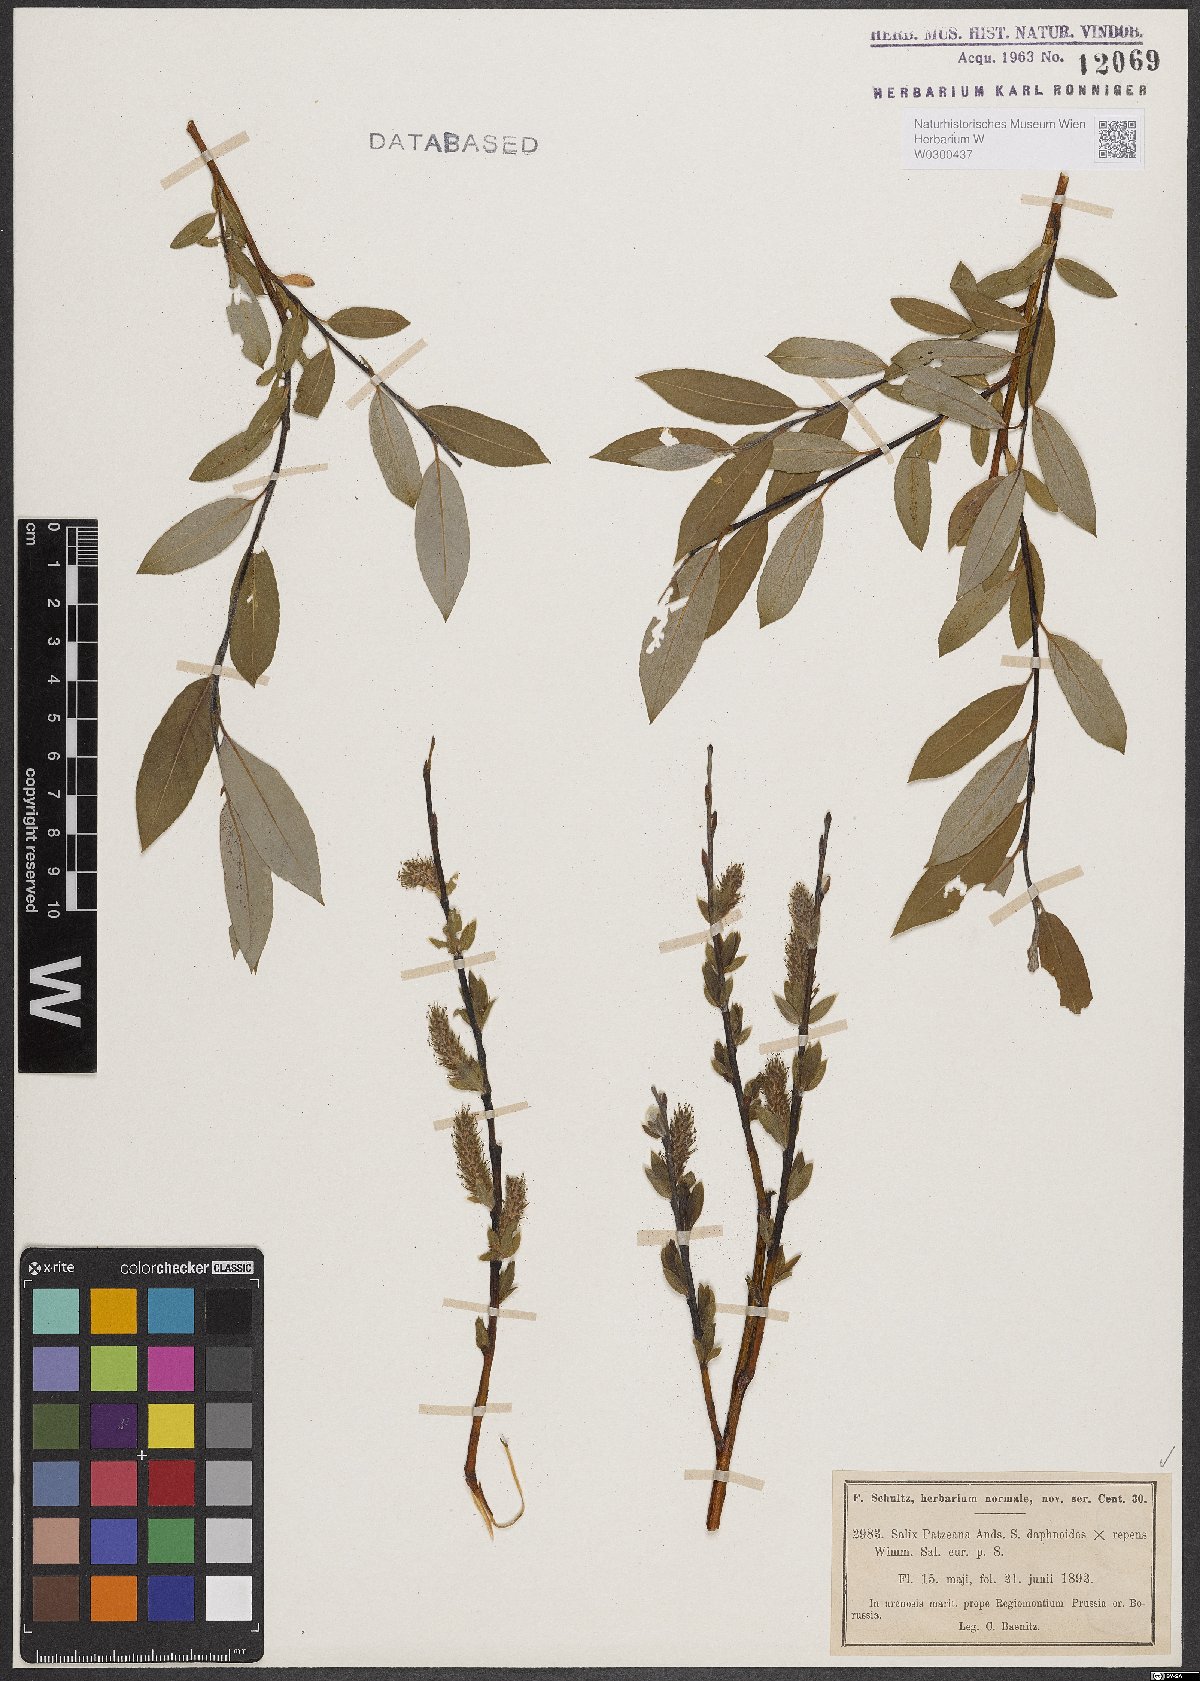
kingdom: Plantae
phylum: Tracheophyta
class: Magnoliopsida
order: Malpighiales
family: Salicaceae
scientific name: Salicaceae
